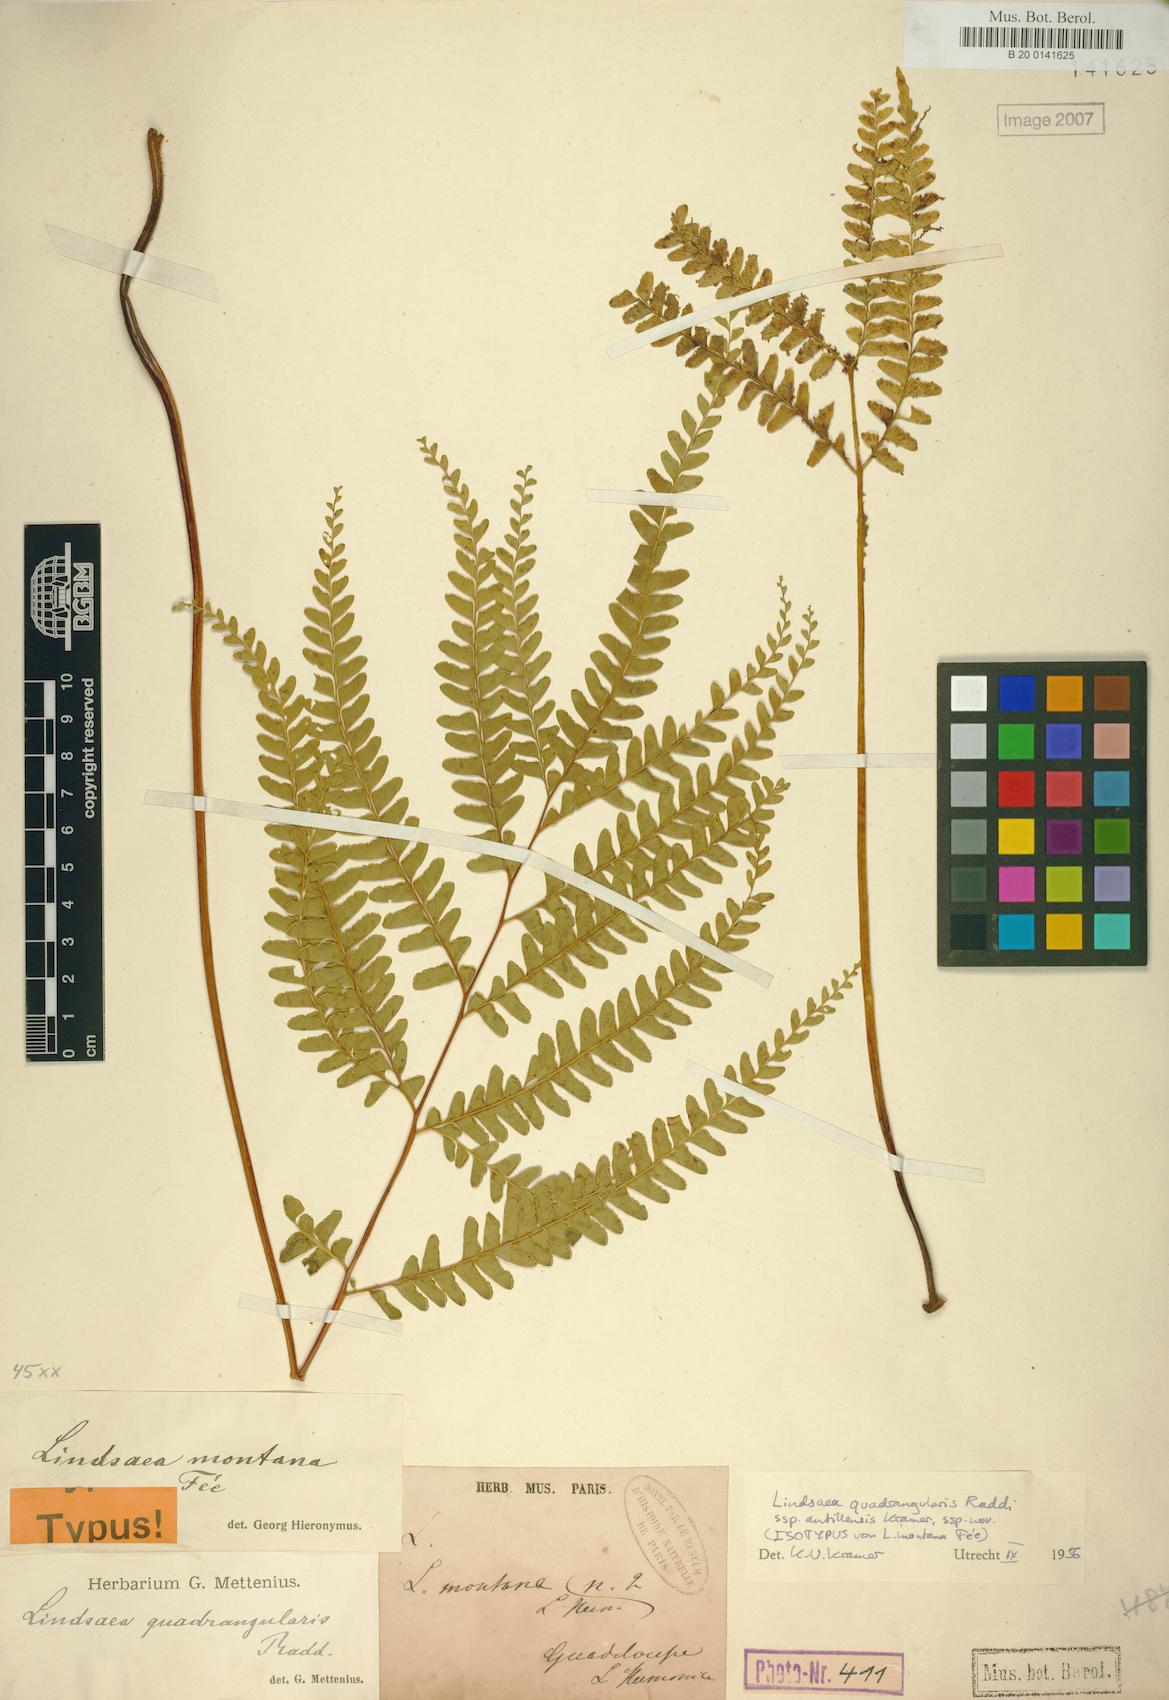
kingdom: Plantae
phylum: Tracheophyta
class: Polypodiopsida
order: Polypodiales
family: Lindsaeaceae
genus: Lindsaea
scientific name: Lindsaea quadrangularis
